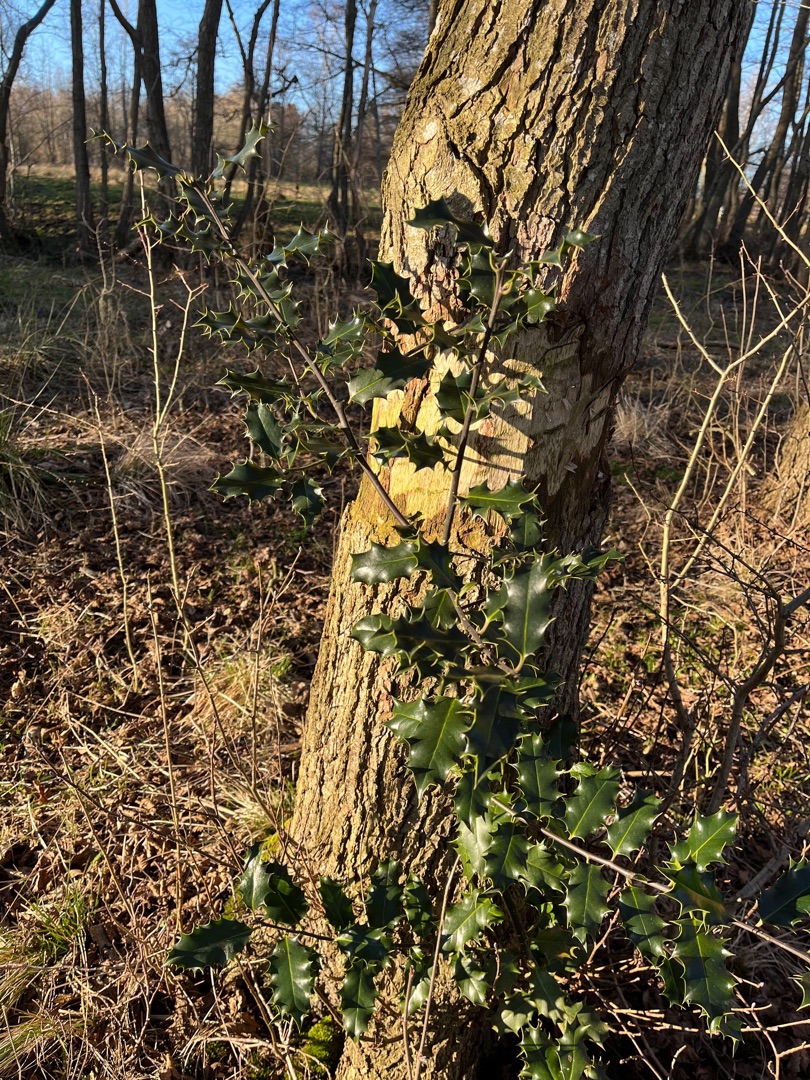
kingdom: Plantae
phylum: Tracheophyta
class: Magnoliopsida
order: Aquifoliales
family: Aquifoliaceae
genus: Ilex
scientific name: Ilex aquifolium
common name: Kristtorn
